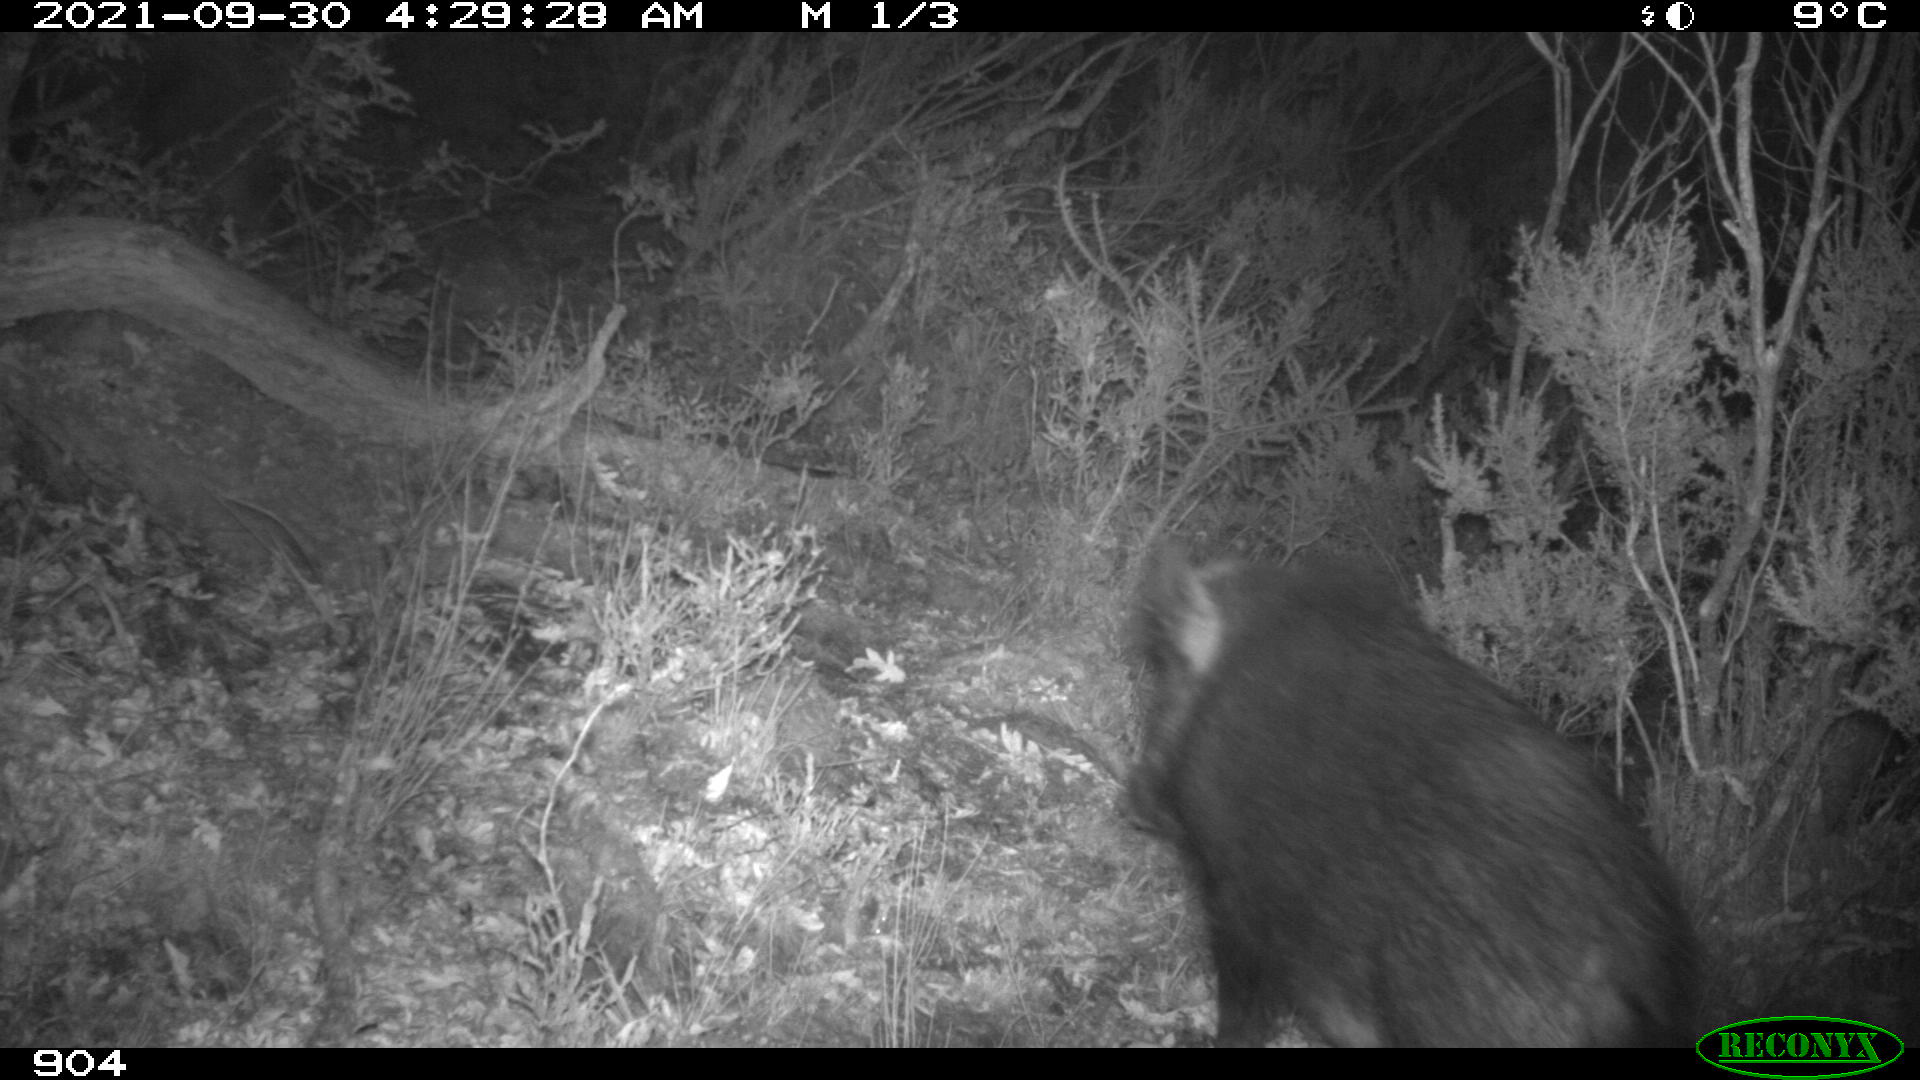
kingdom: Animalia
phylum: Chordata
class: Mammalia
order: Artiodactyla
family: Suidae
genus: Sus
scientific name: Sus scrofa
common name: Wild boar
